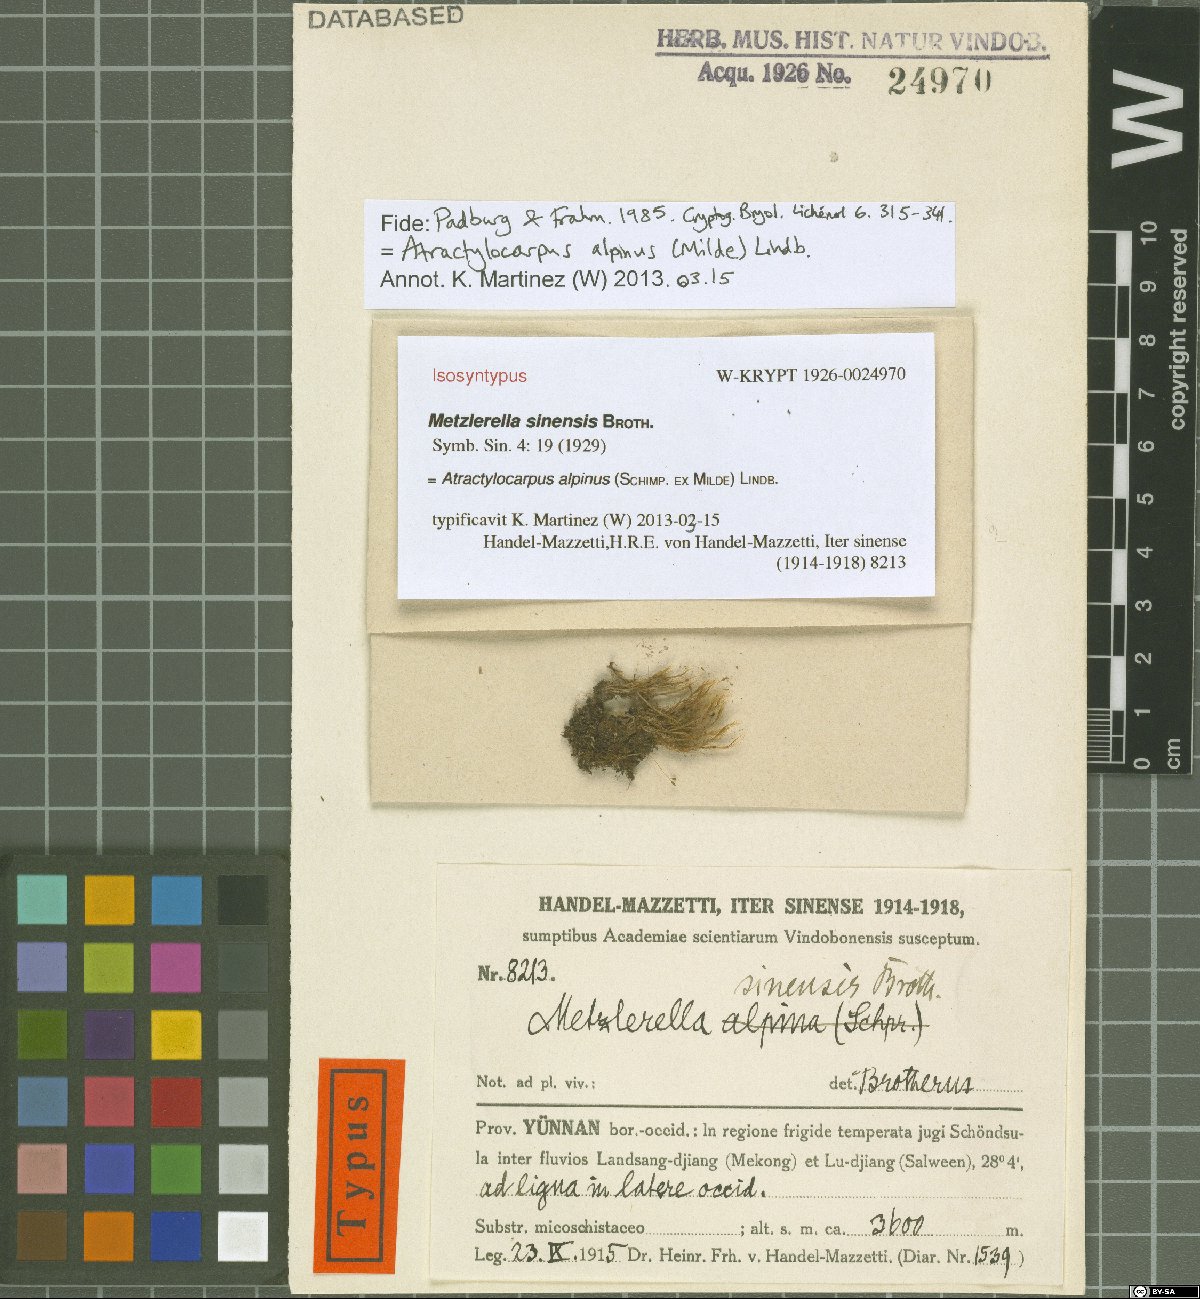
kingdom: Plantae
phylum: Bryophyta
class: Bryopsida
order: Dicranales
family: Leucobryaceae
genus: Atractylocarpus
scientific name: Atractylocarpus alpinus
